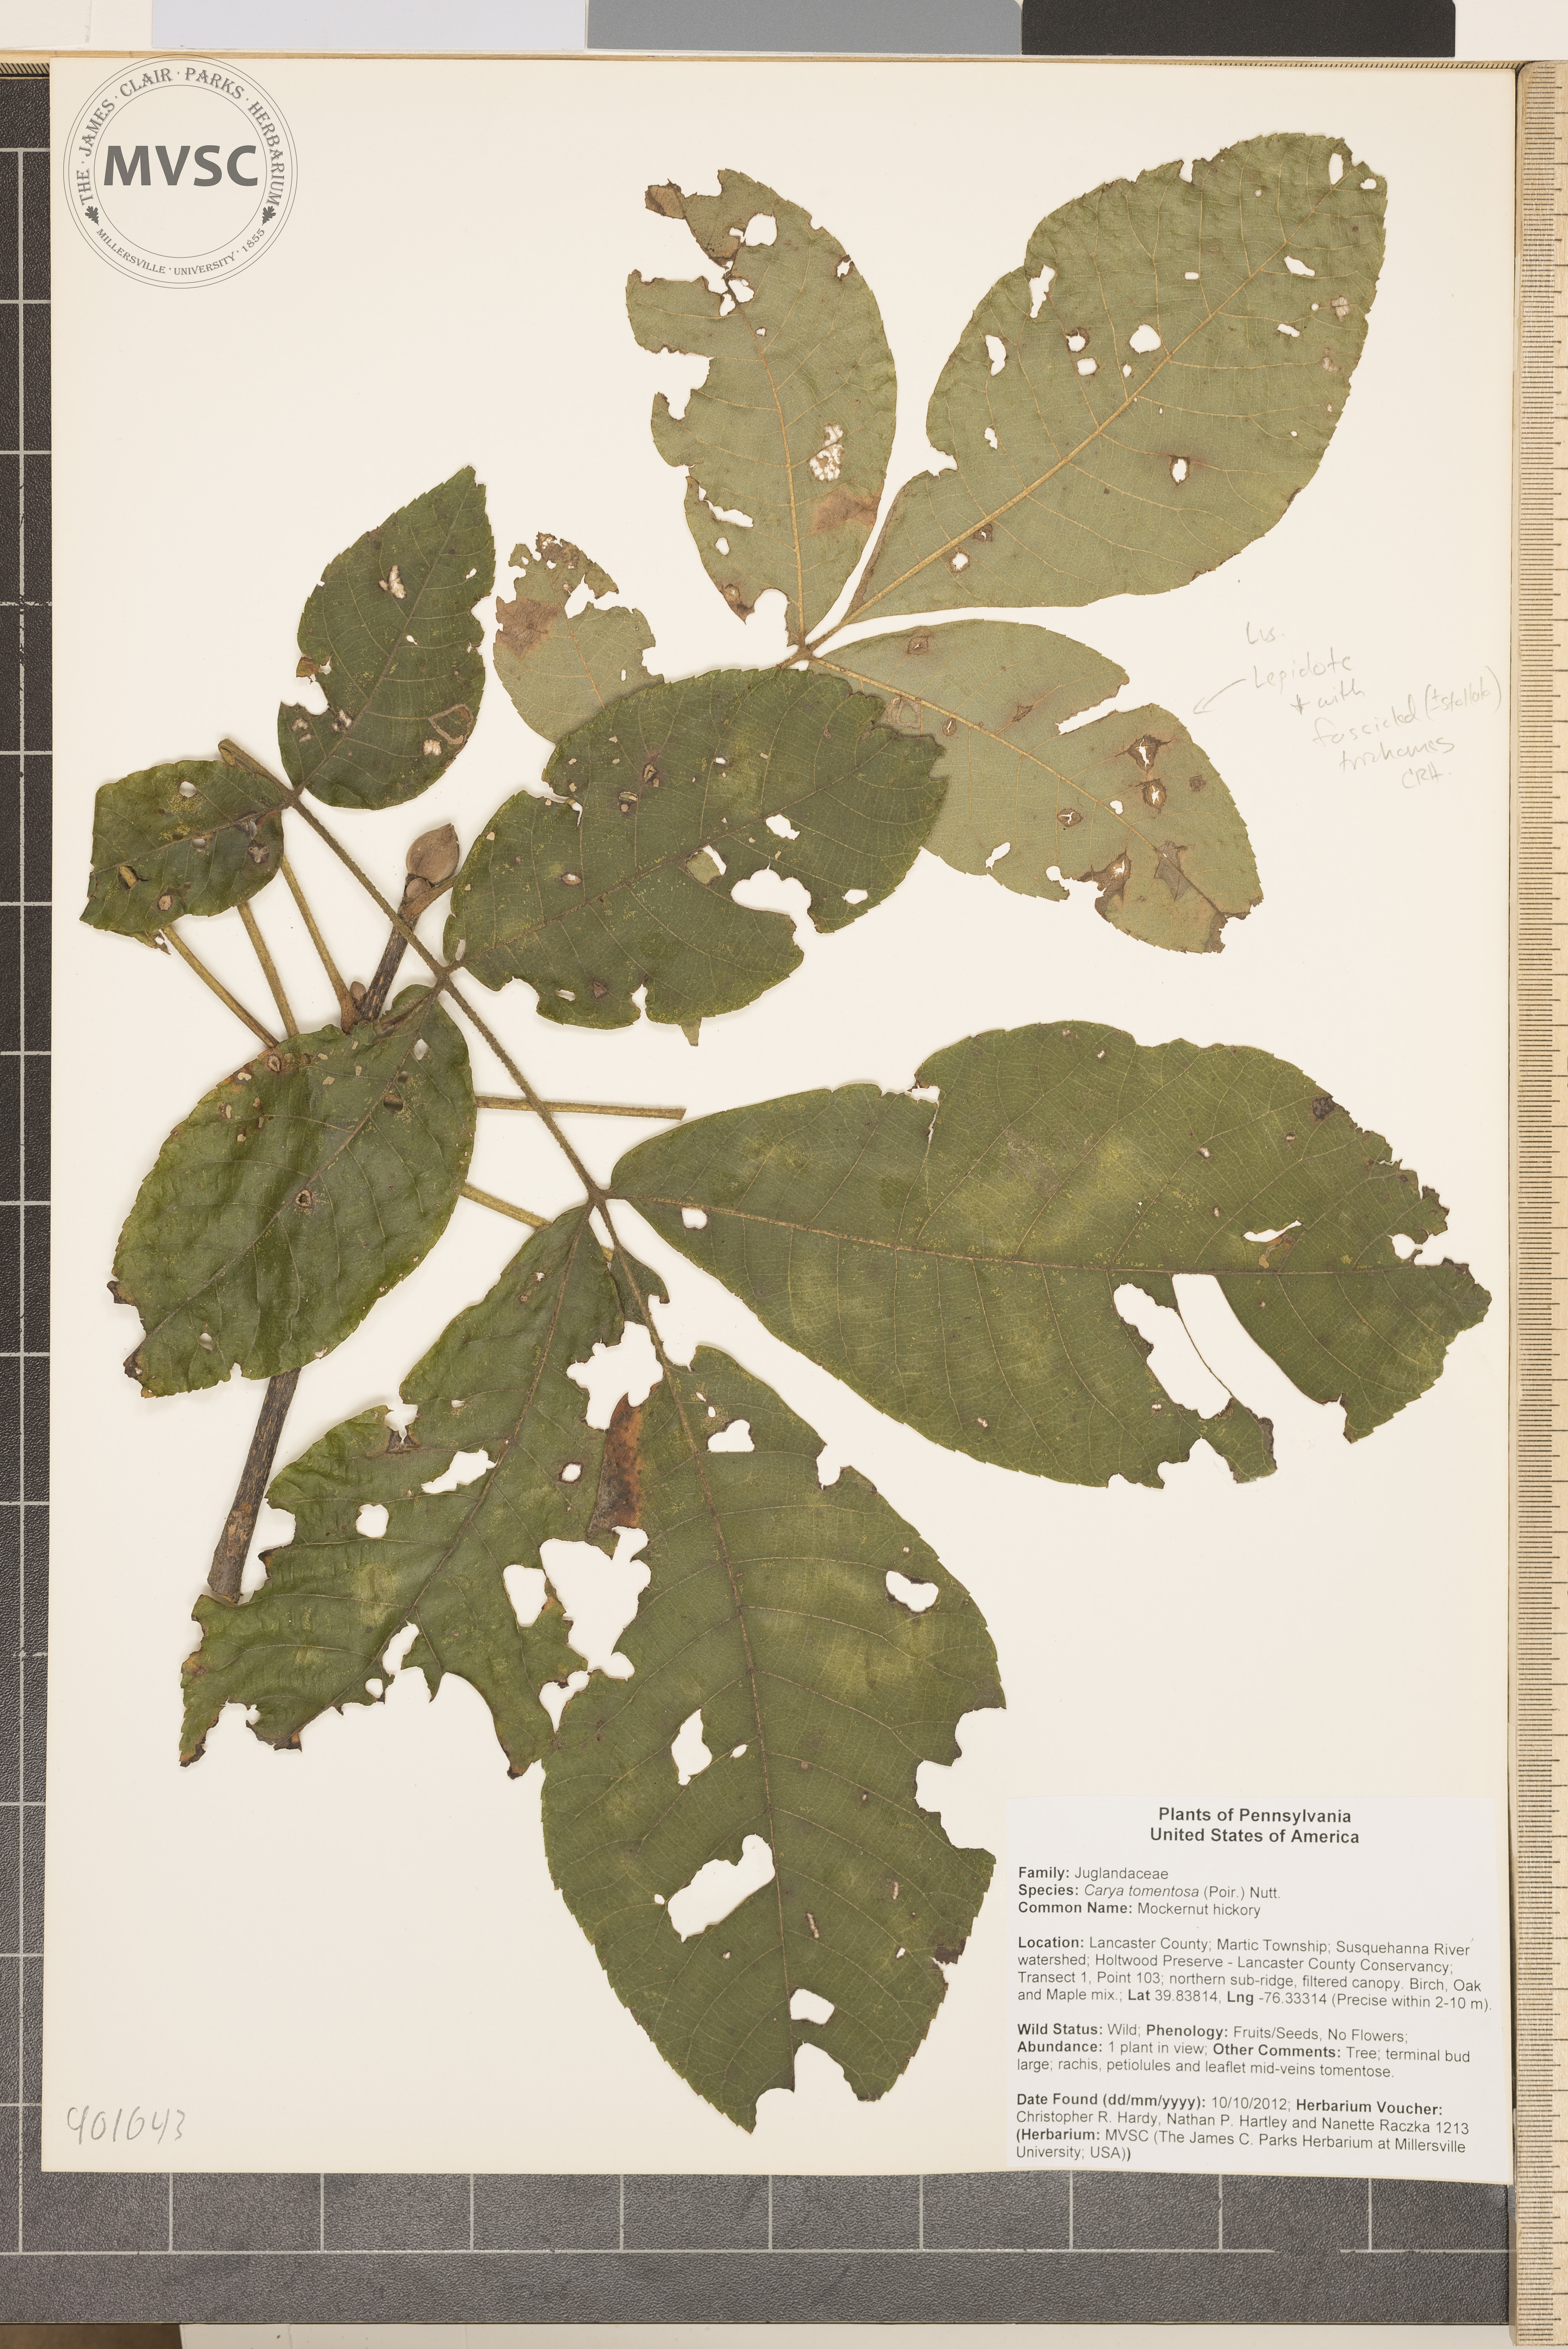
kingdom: Plantae
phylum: Tracheophyta
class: Magnoliopsida
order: Fagales
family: Juglandaceae
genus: Carya
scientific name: Carya alba
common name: Mockernut hickory
